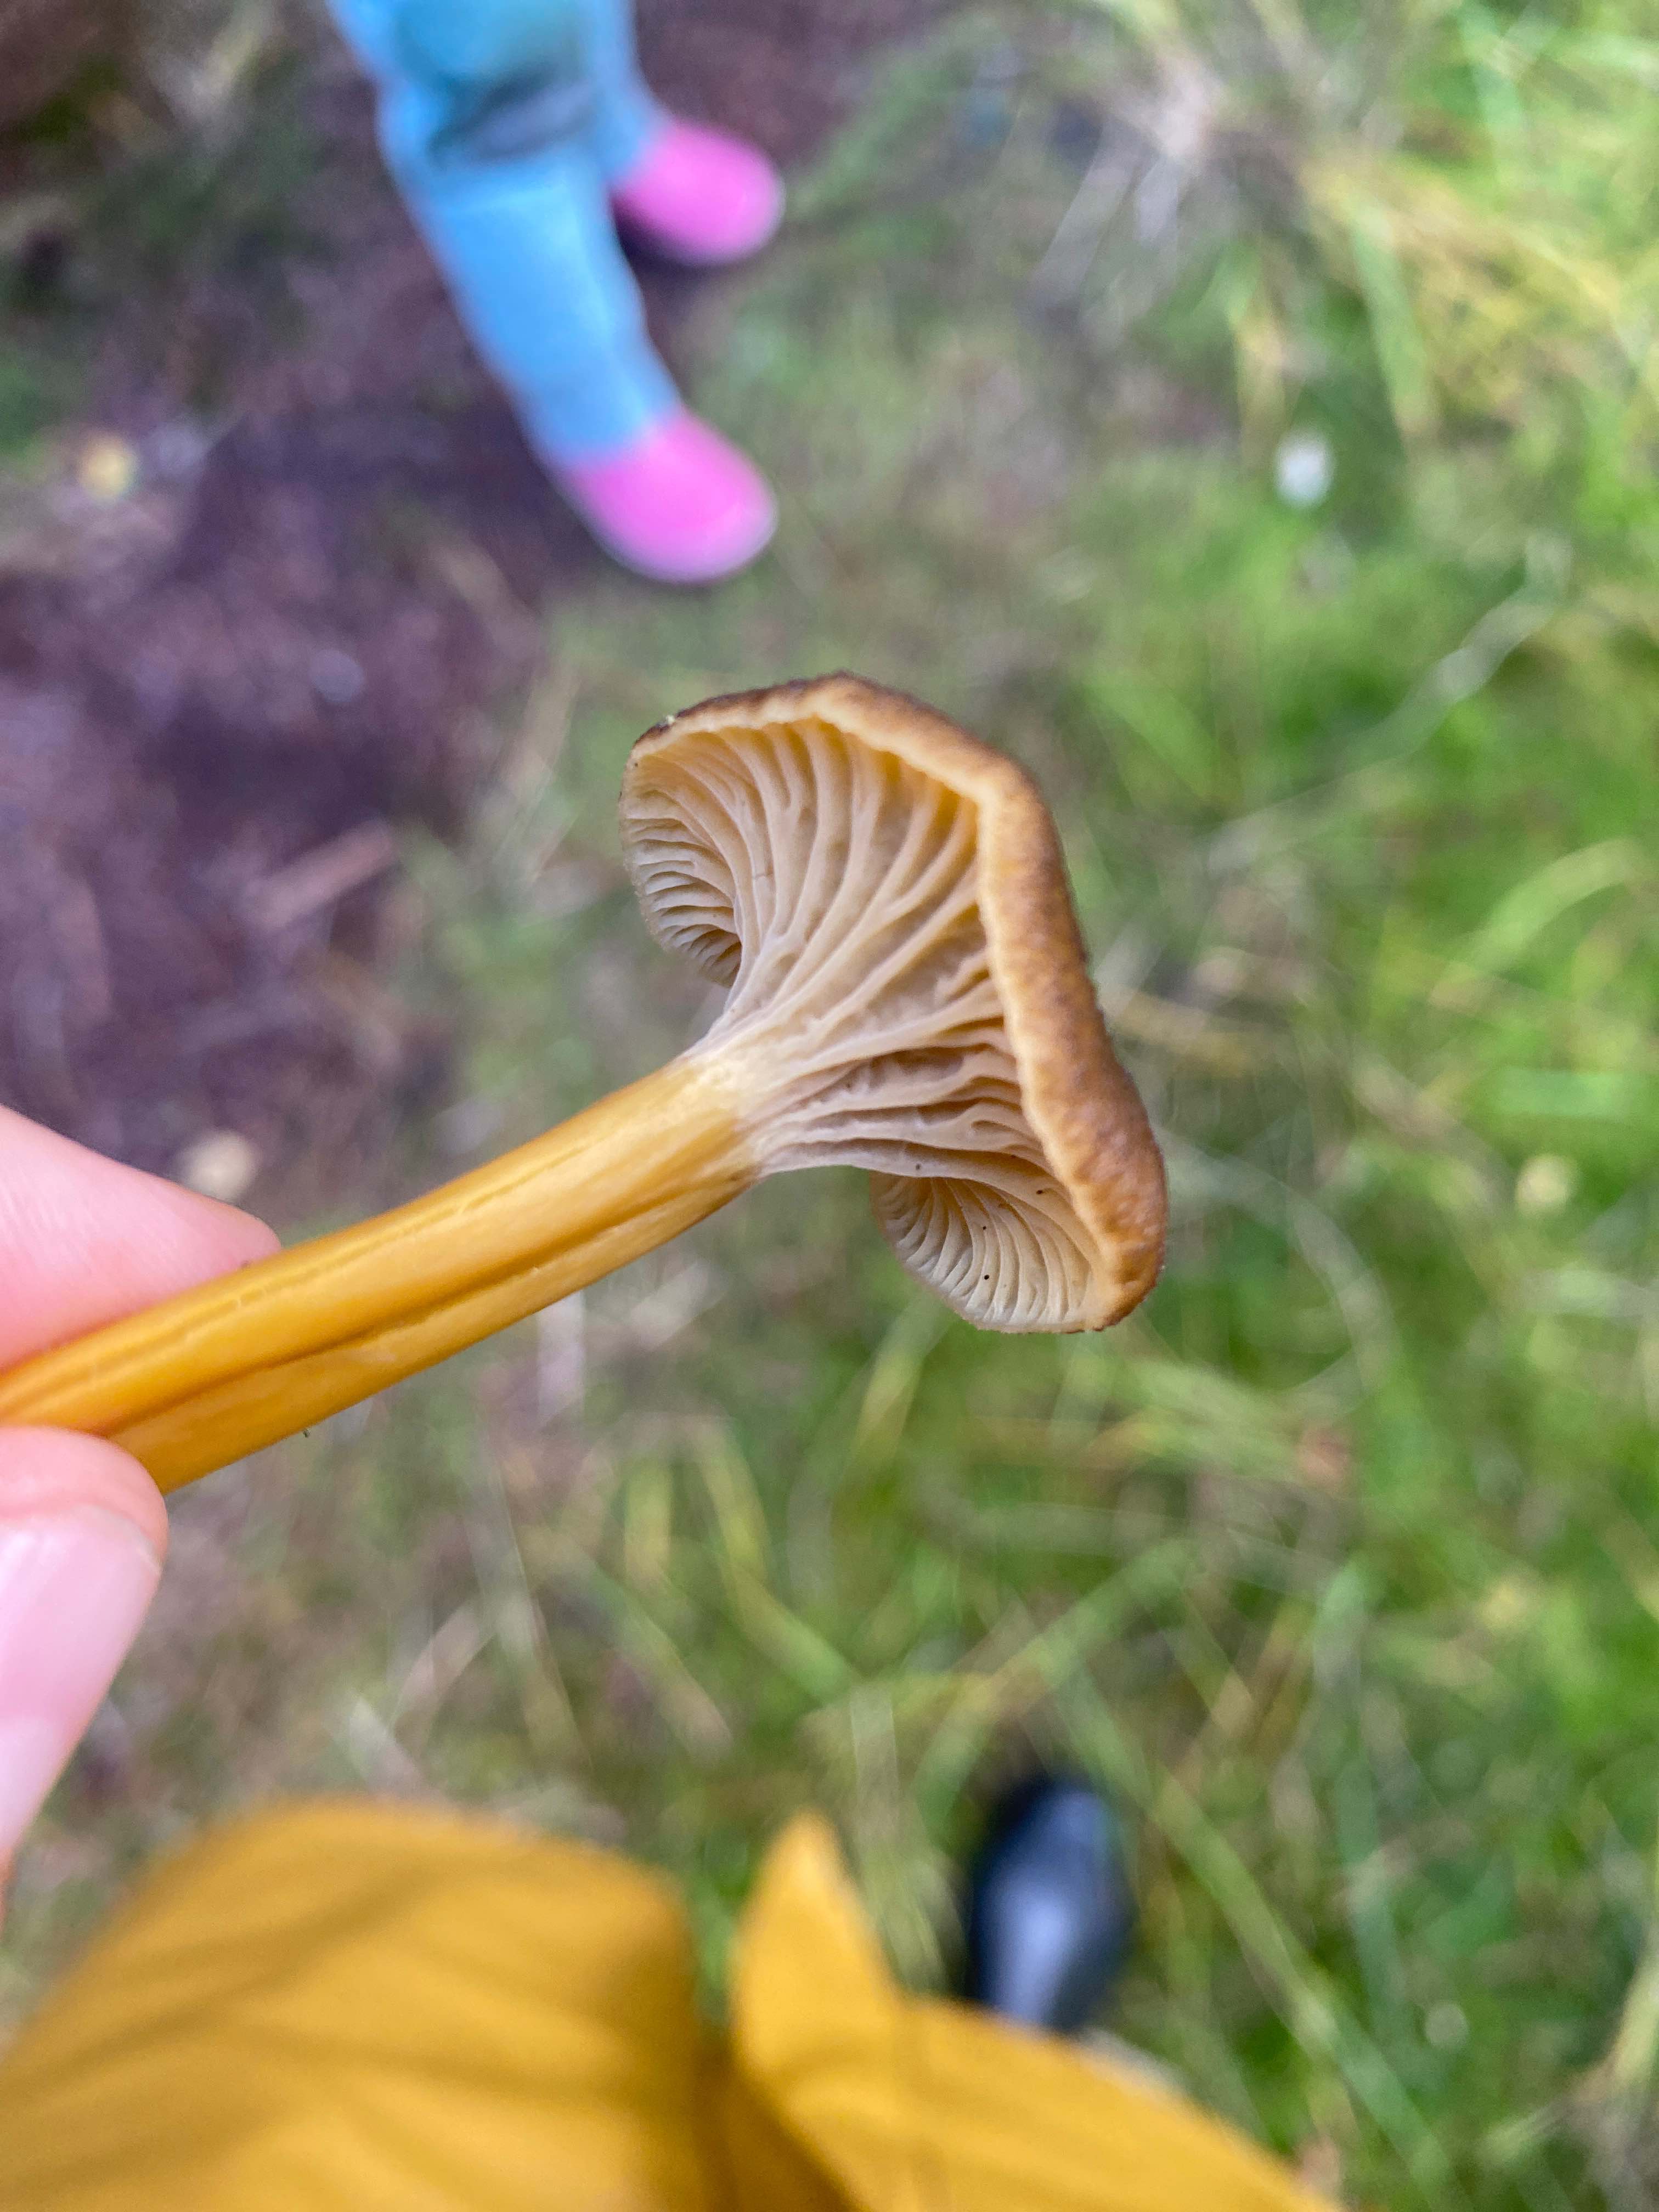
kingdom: Fungi
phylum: Basidiomycota
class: Agaricomycetes
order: Cantharellales
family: Hydnaceae
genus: Craterellus
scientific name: Craterellus tubaeformis
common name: tragt-kantarel
